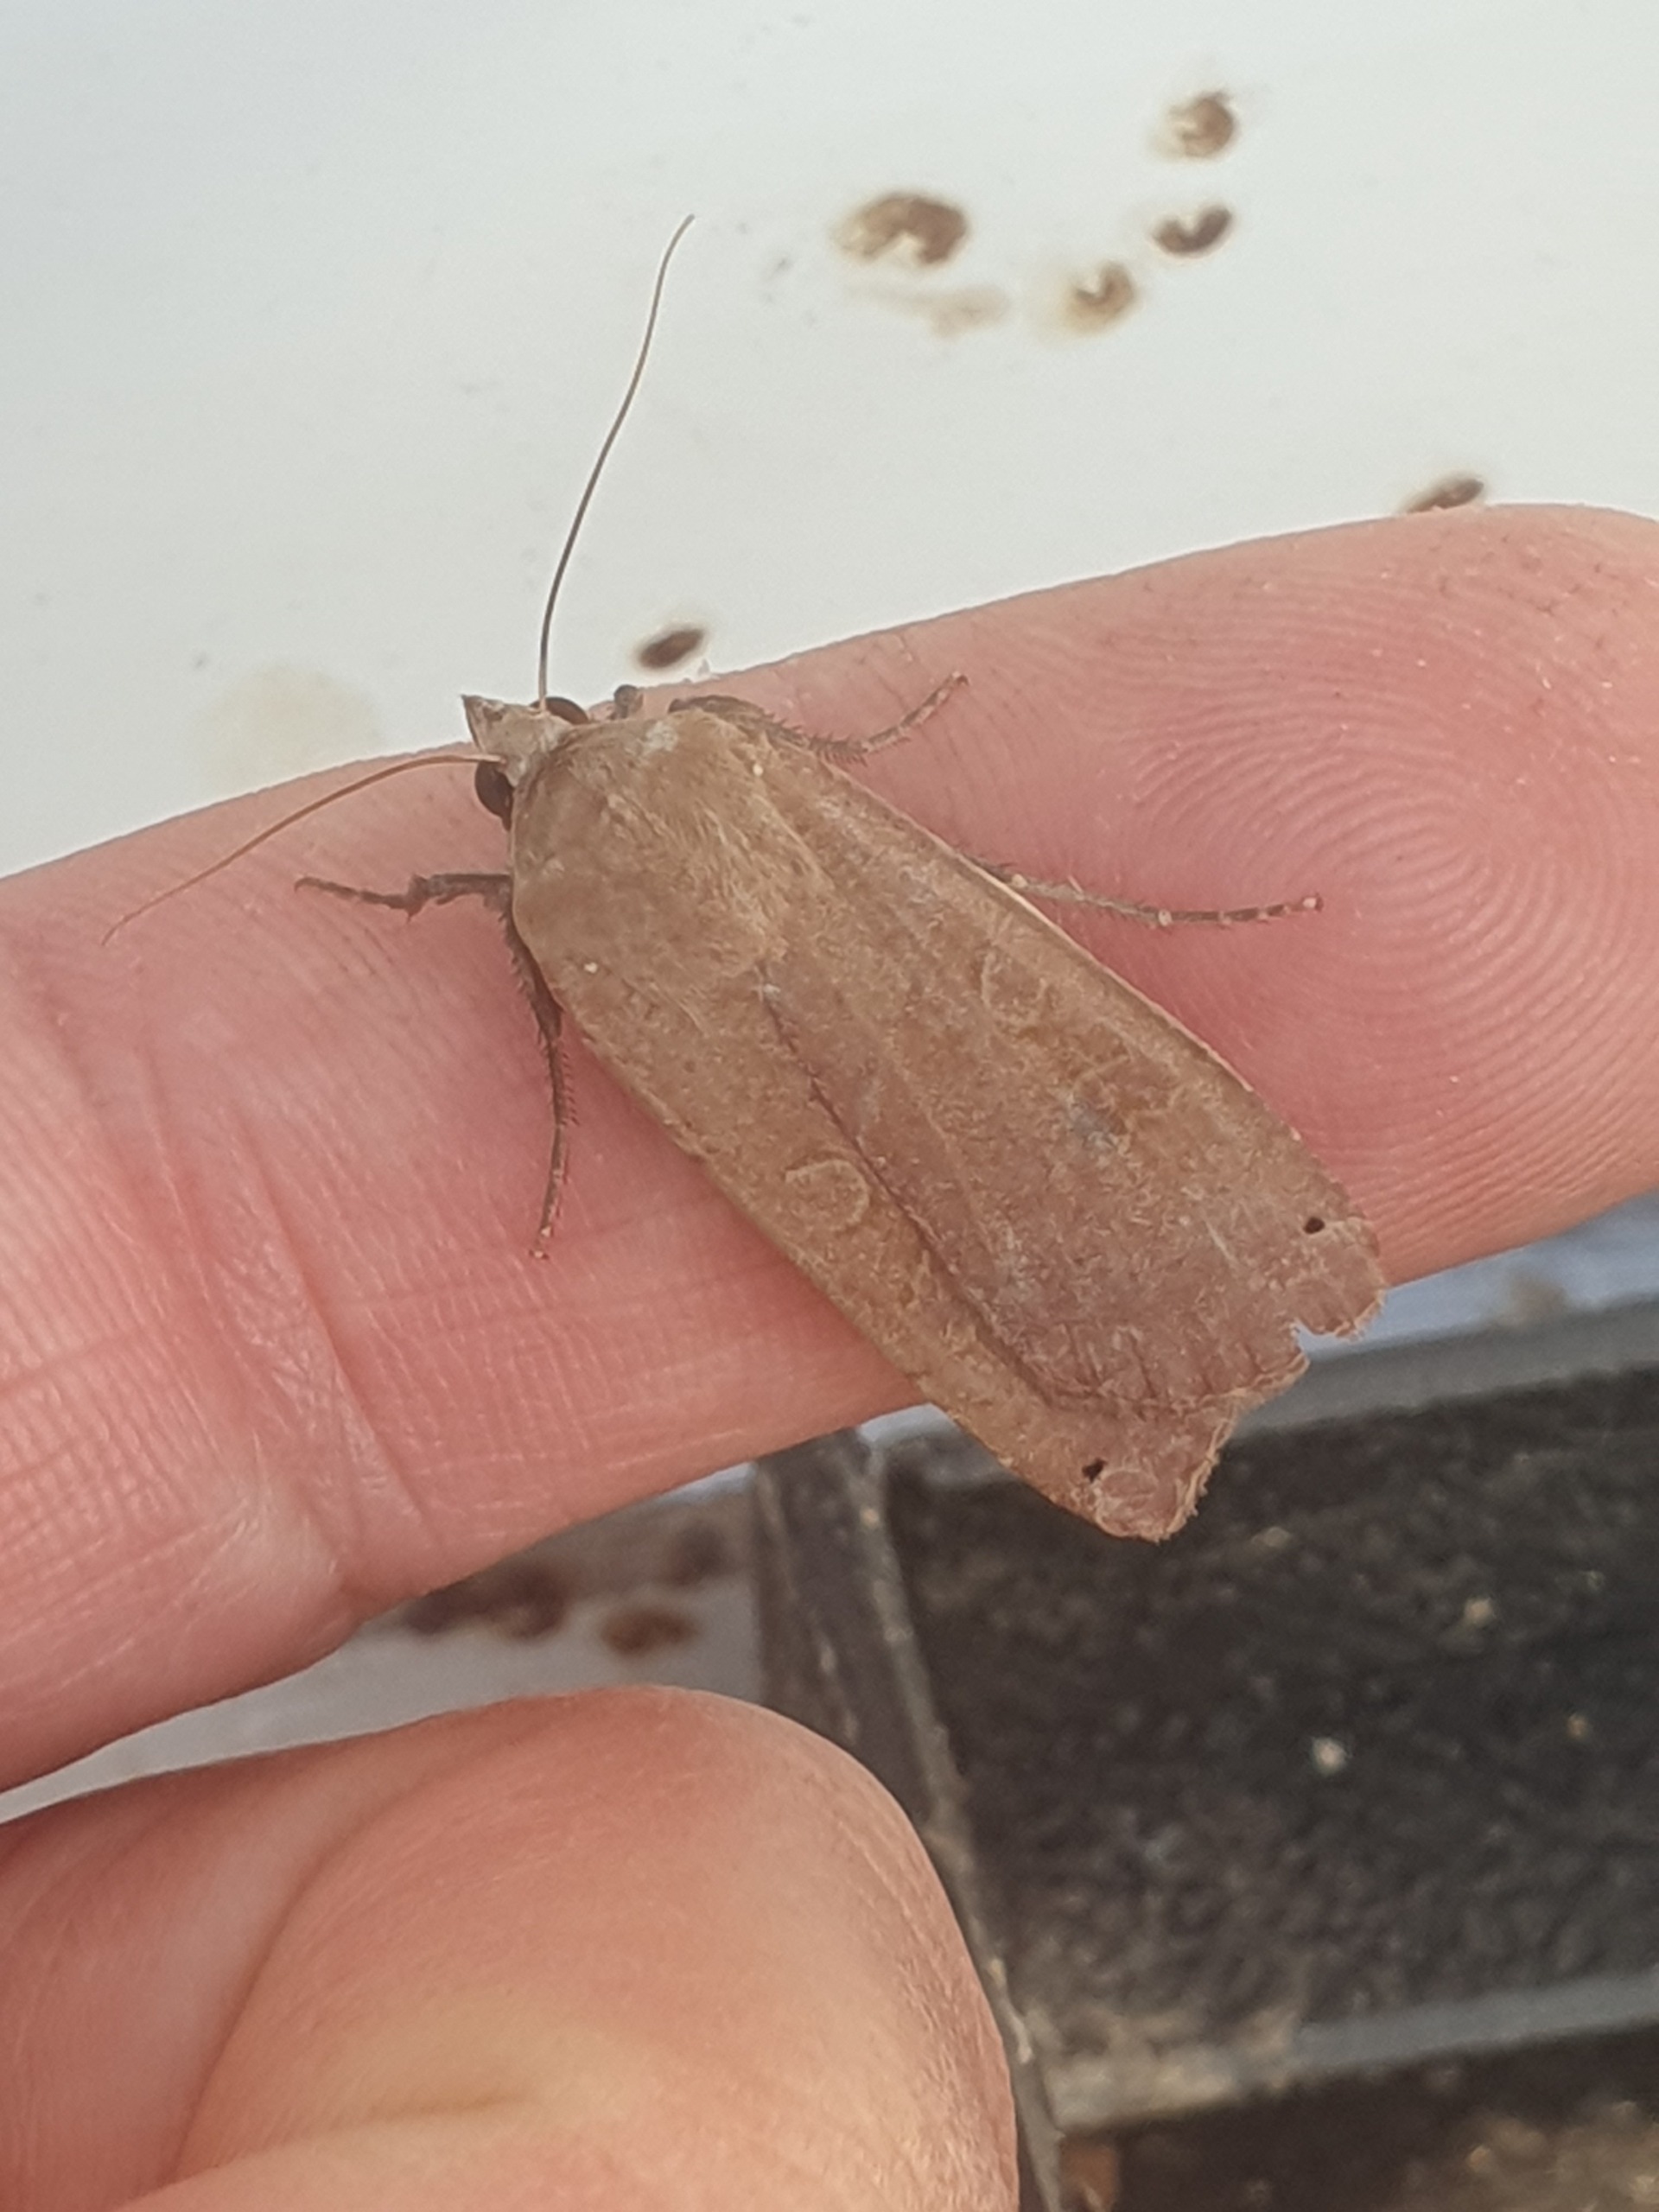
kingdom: Animalia
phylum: Arthropoda
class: Insecta
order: Lepidoptera
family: Noctuidae
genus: Noctua
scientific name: Noctua pronuba
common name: Stor smutugle
